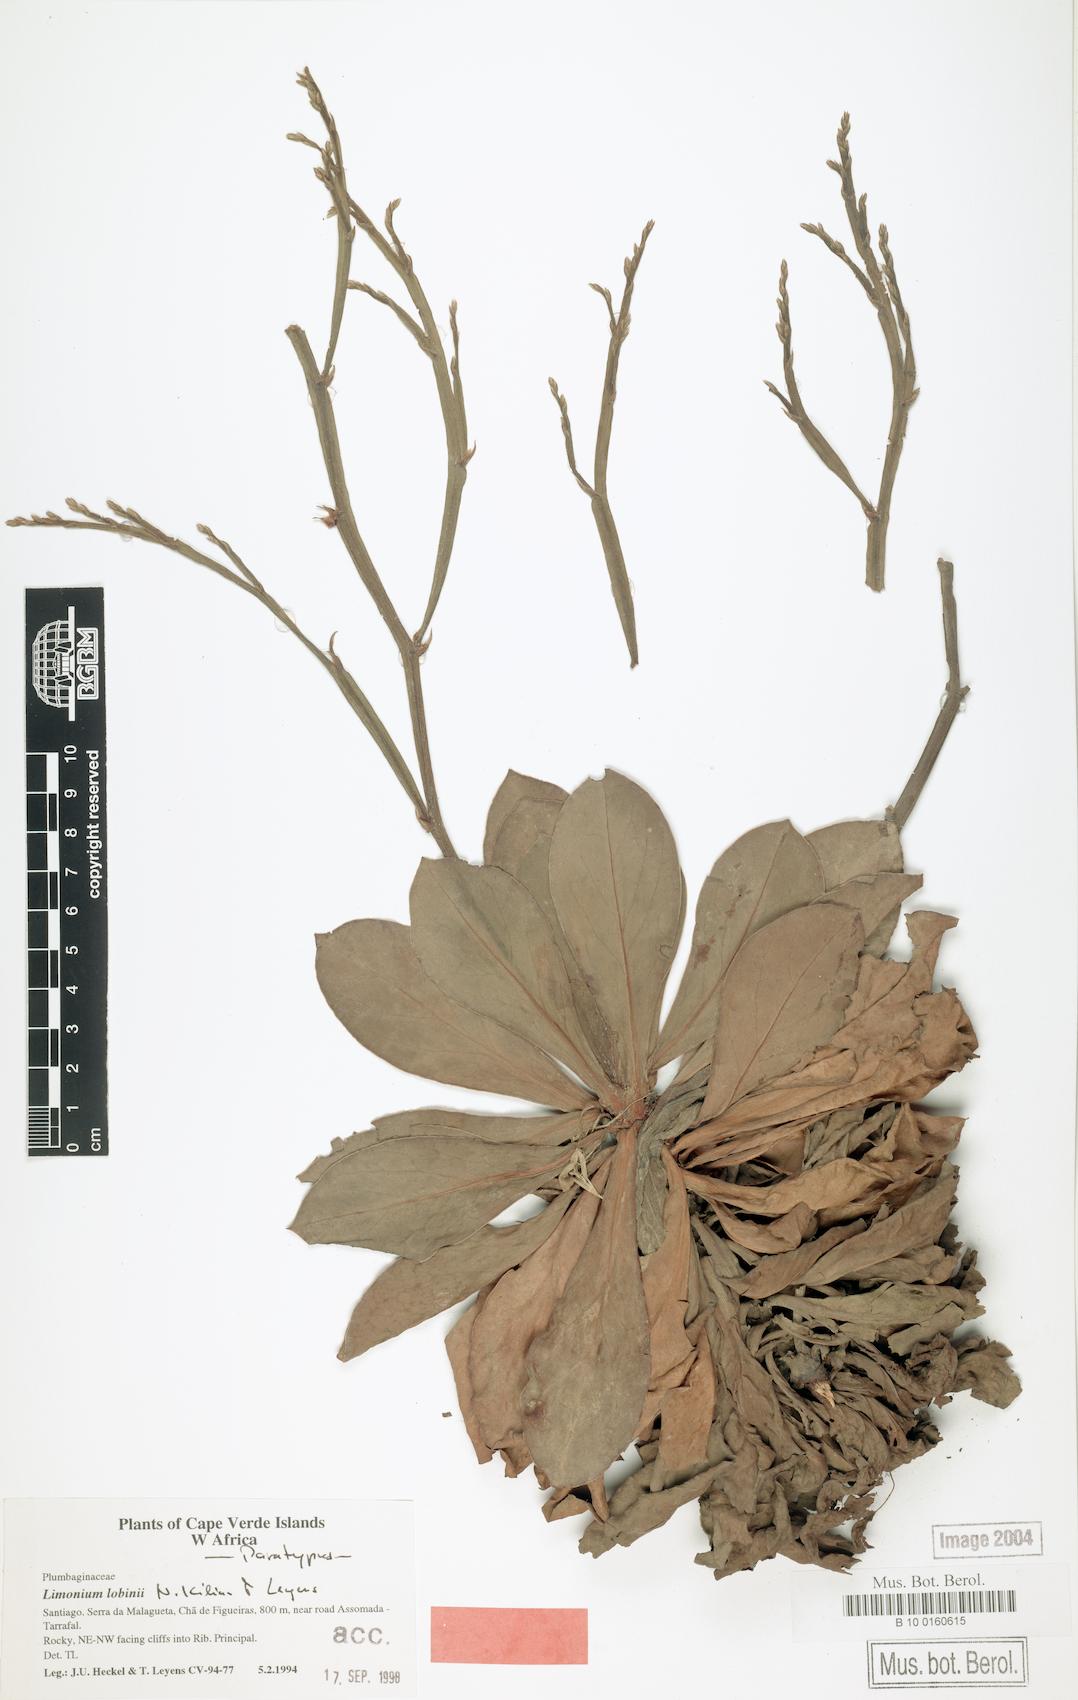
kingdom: Plantae
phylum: Tracheophyta
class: Magnoliopsida
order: Caryophyllales
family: Plumbaginaceae
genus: Limonium
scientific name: Limonium lobinii
